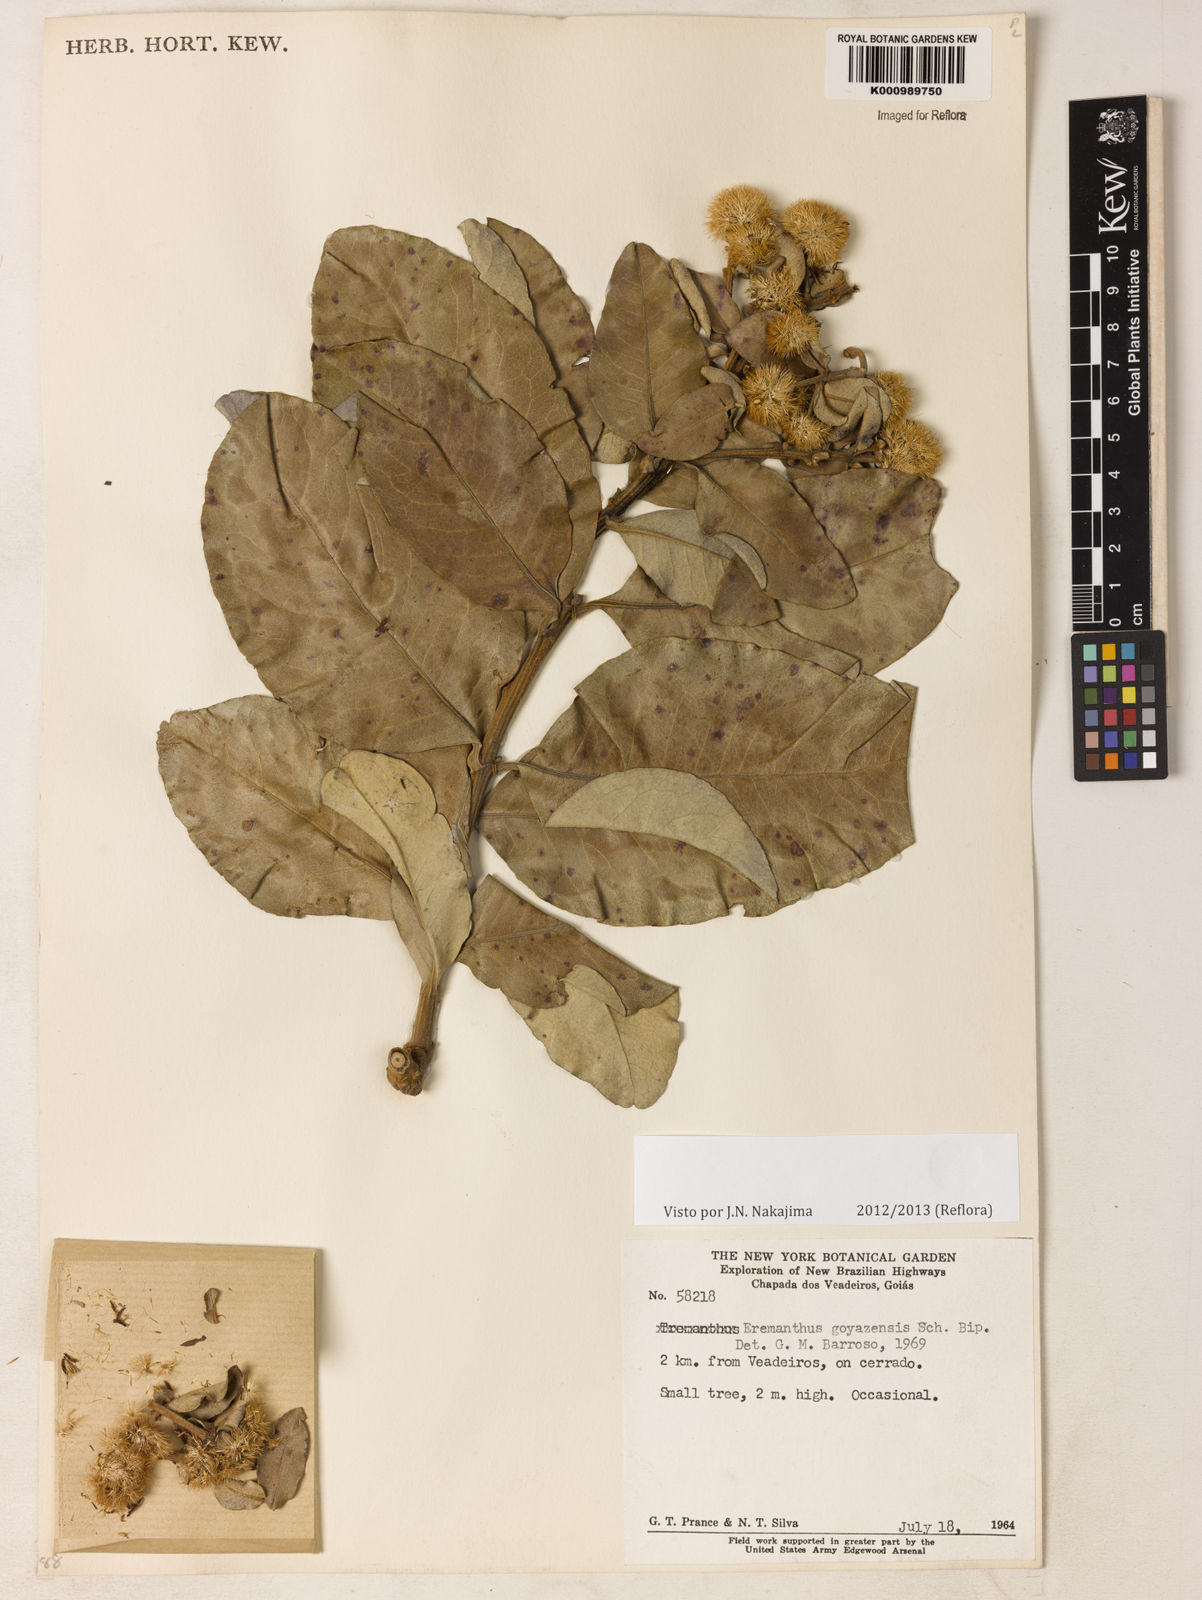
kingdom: Plantae
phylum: Tracheophyta
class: Magnoliopsida
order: Asterales
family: Asteraceae
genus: Eremanthus
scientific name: Eremanthus goyazensis
